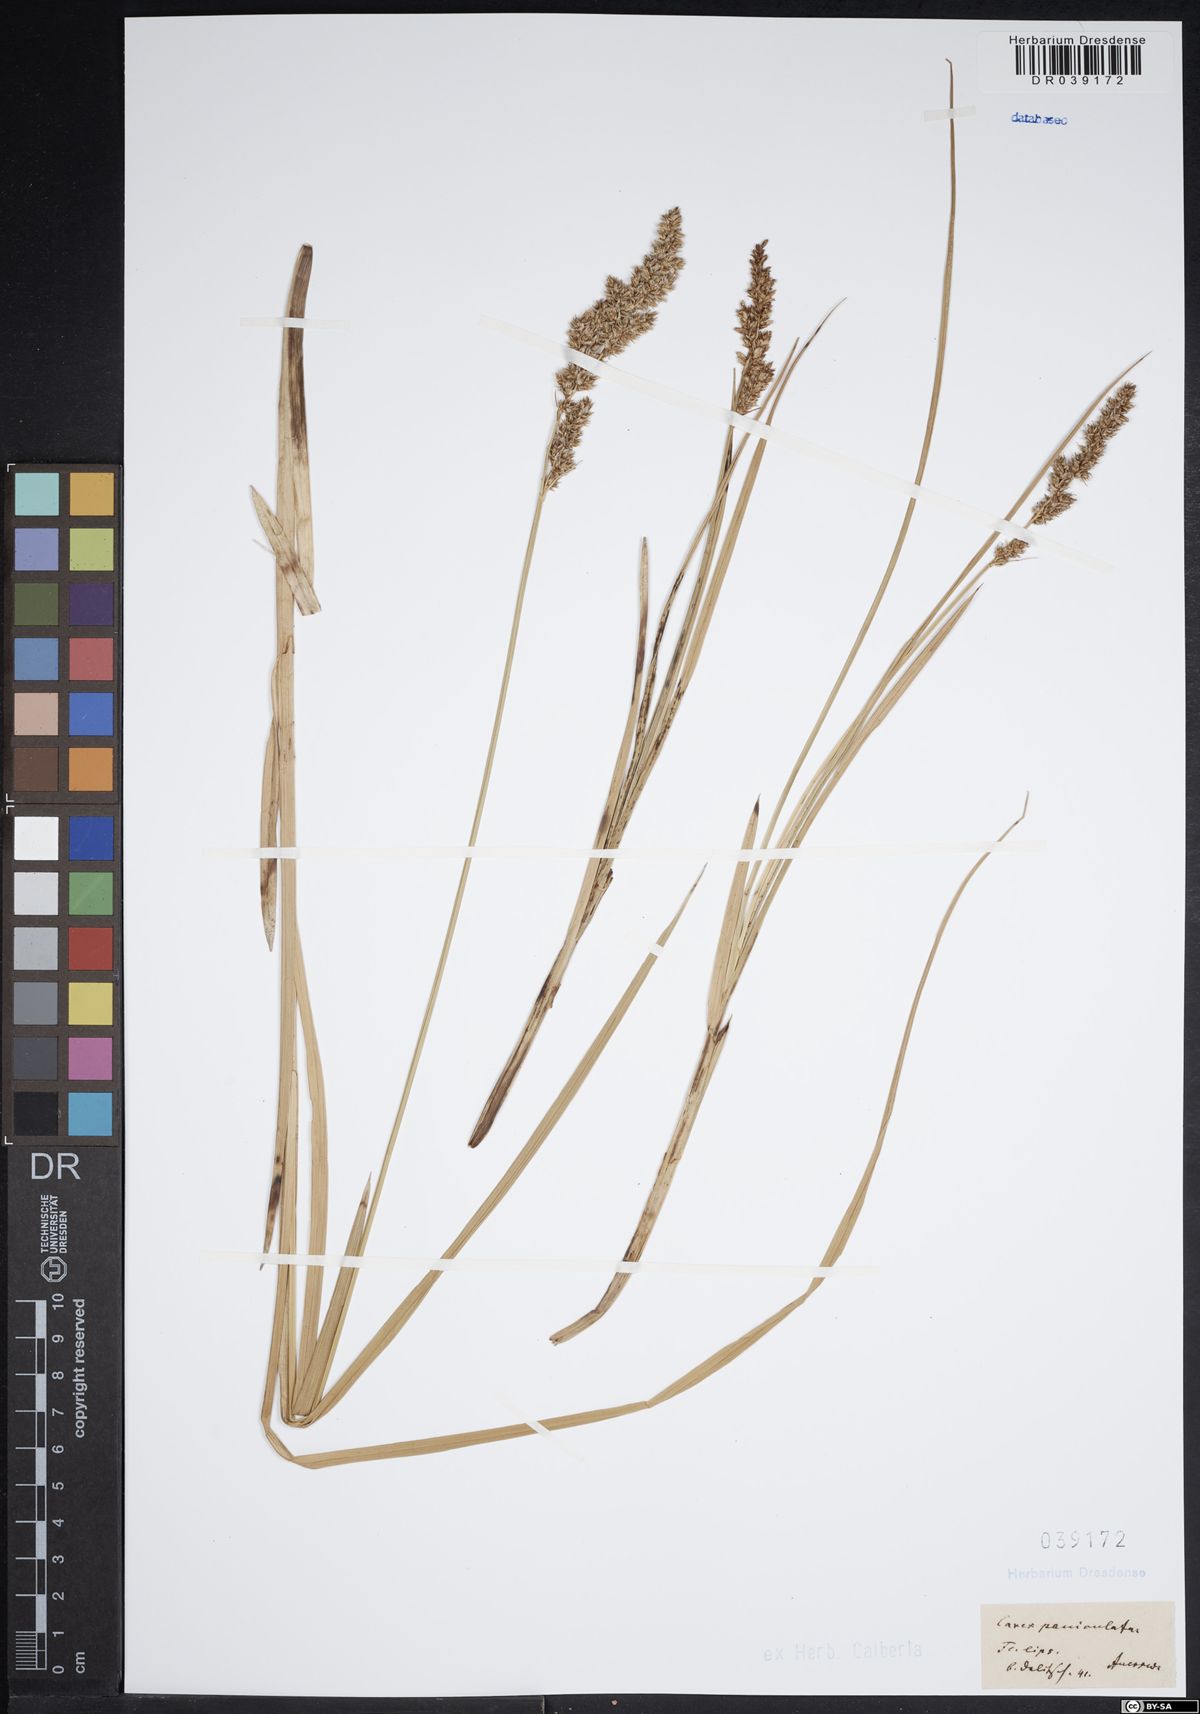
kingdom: Plantae
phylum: Tracheophyta
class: Liliopsida
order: Poales
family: Cyperaceae
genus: Carex
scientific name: Carex paniculata
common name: Greater tussock-sedge
